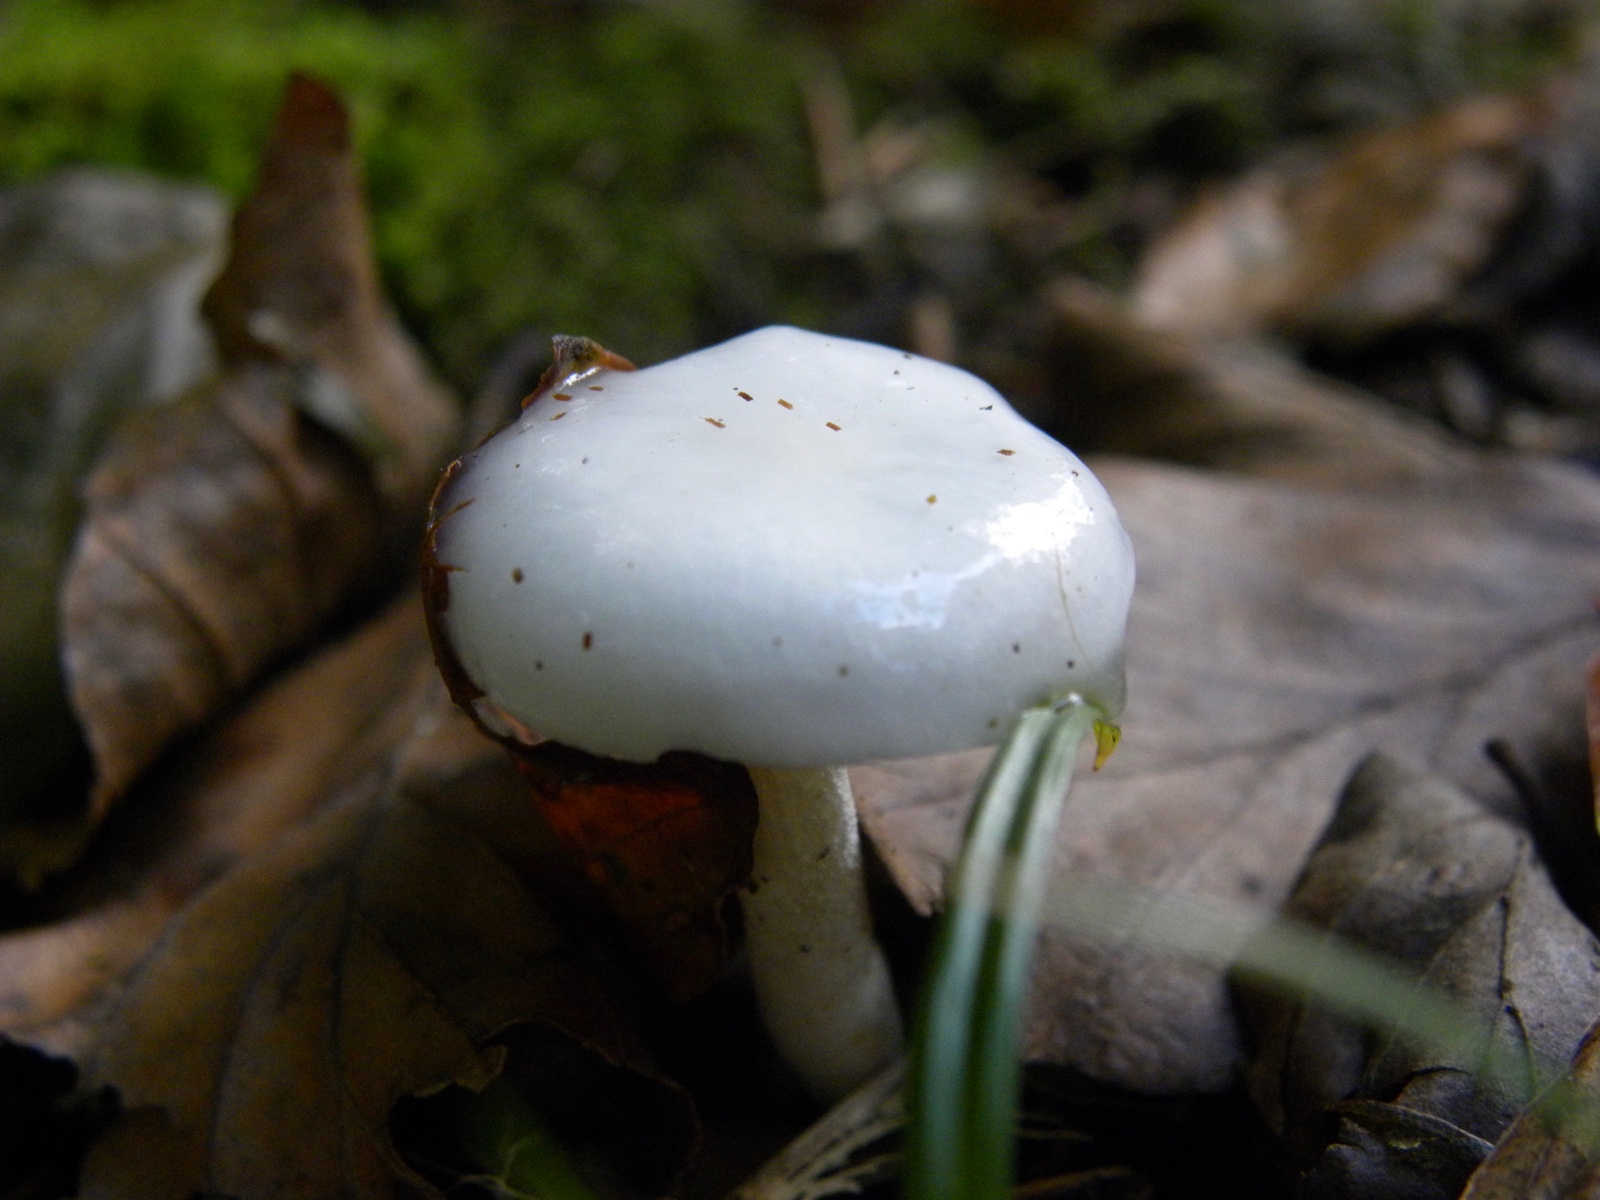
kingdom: Fungi
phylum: Basidiomycota
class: Agaricomycetes
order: Agaricales
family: Hygrophoraceae
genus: Hygrophorus
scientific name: Hygrophorus
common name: sneglehat
